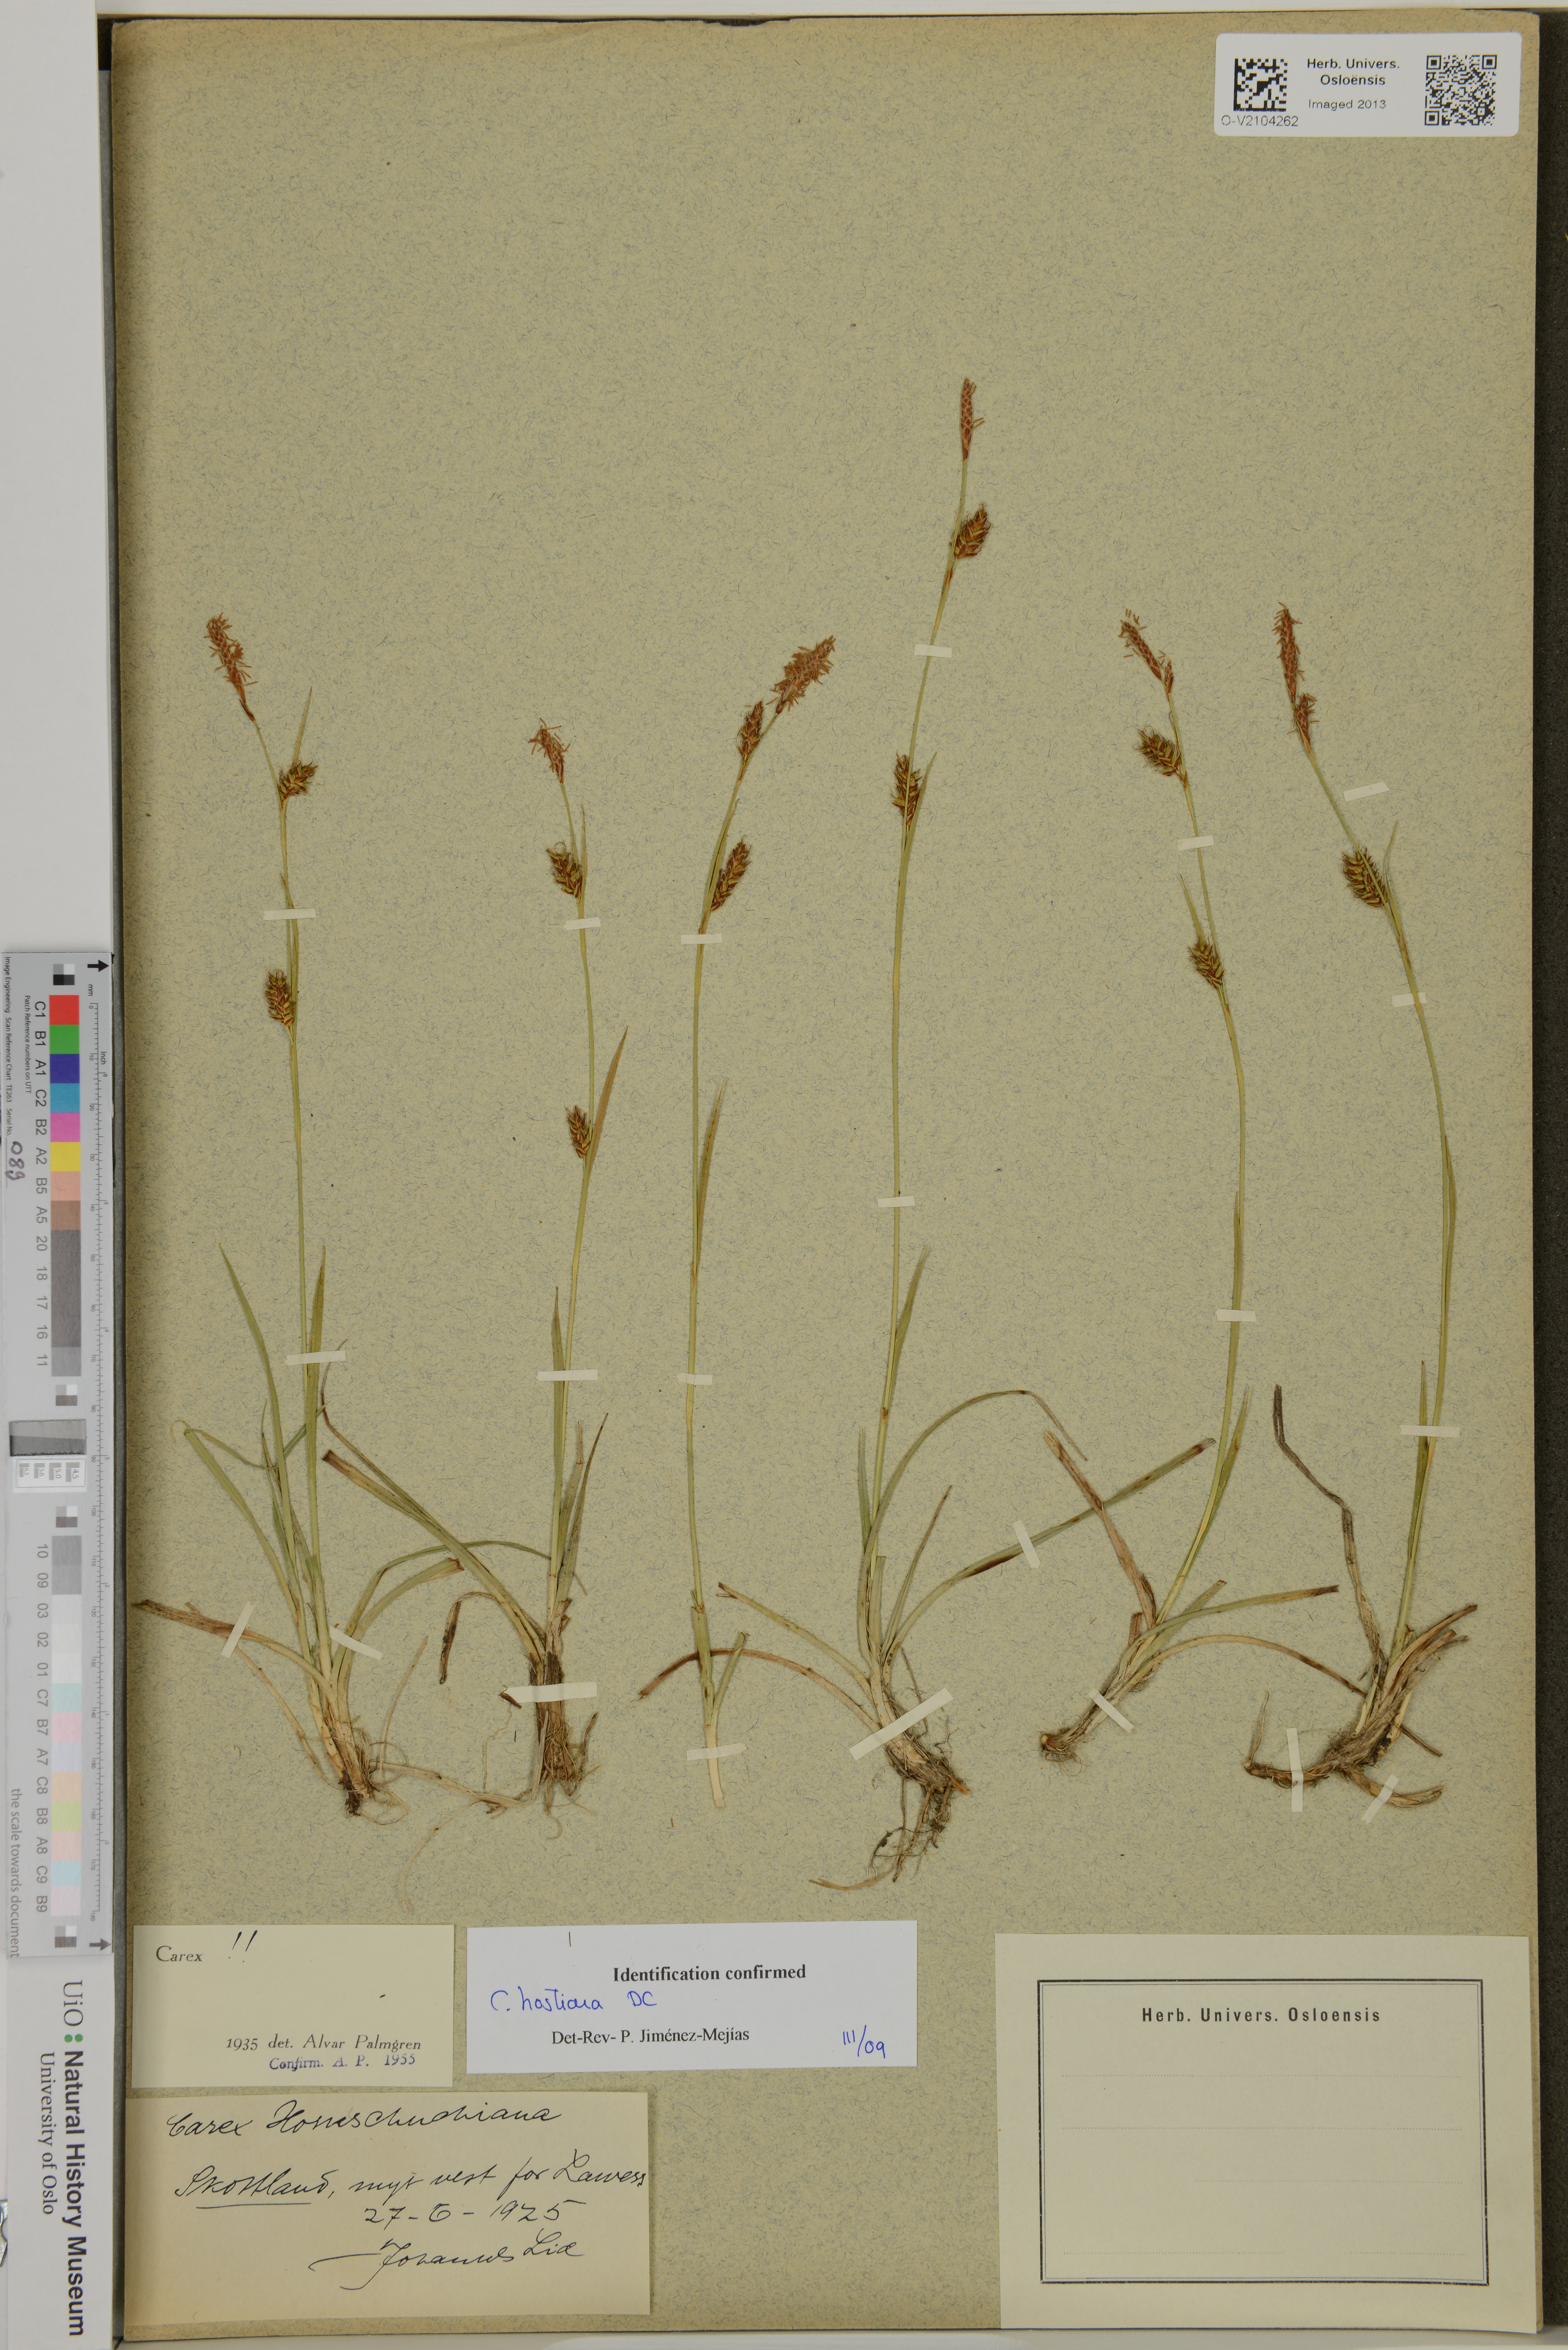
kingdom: Plantae
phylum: Tracheophyta
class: Liliopsida
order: Poales
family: Cyperaceae
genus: Carex
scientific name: Carex hostiana
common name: Tawny sedge
